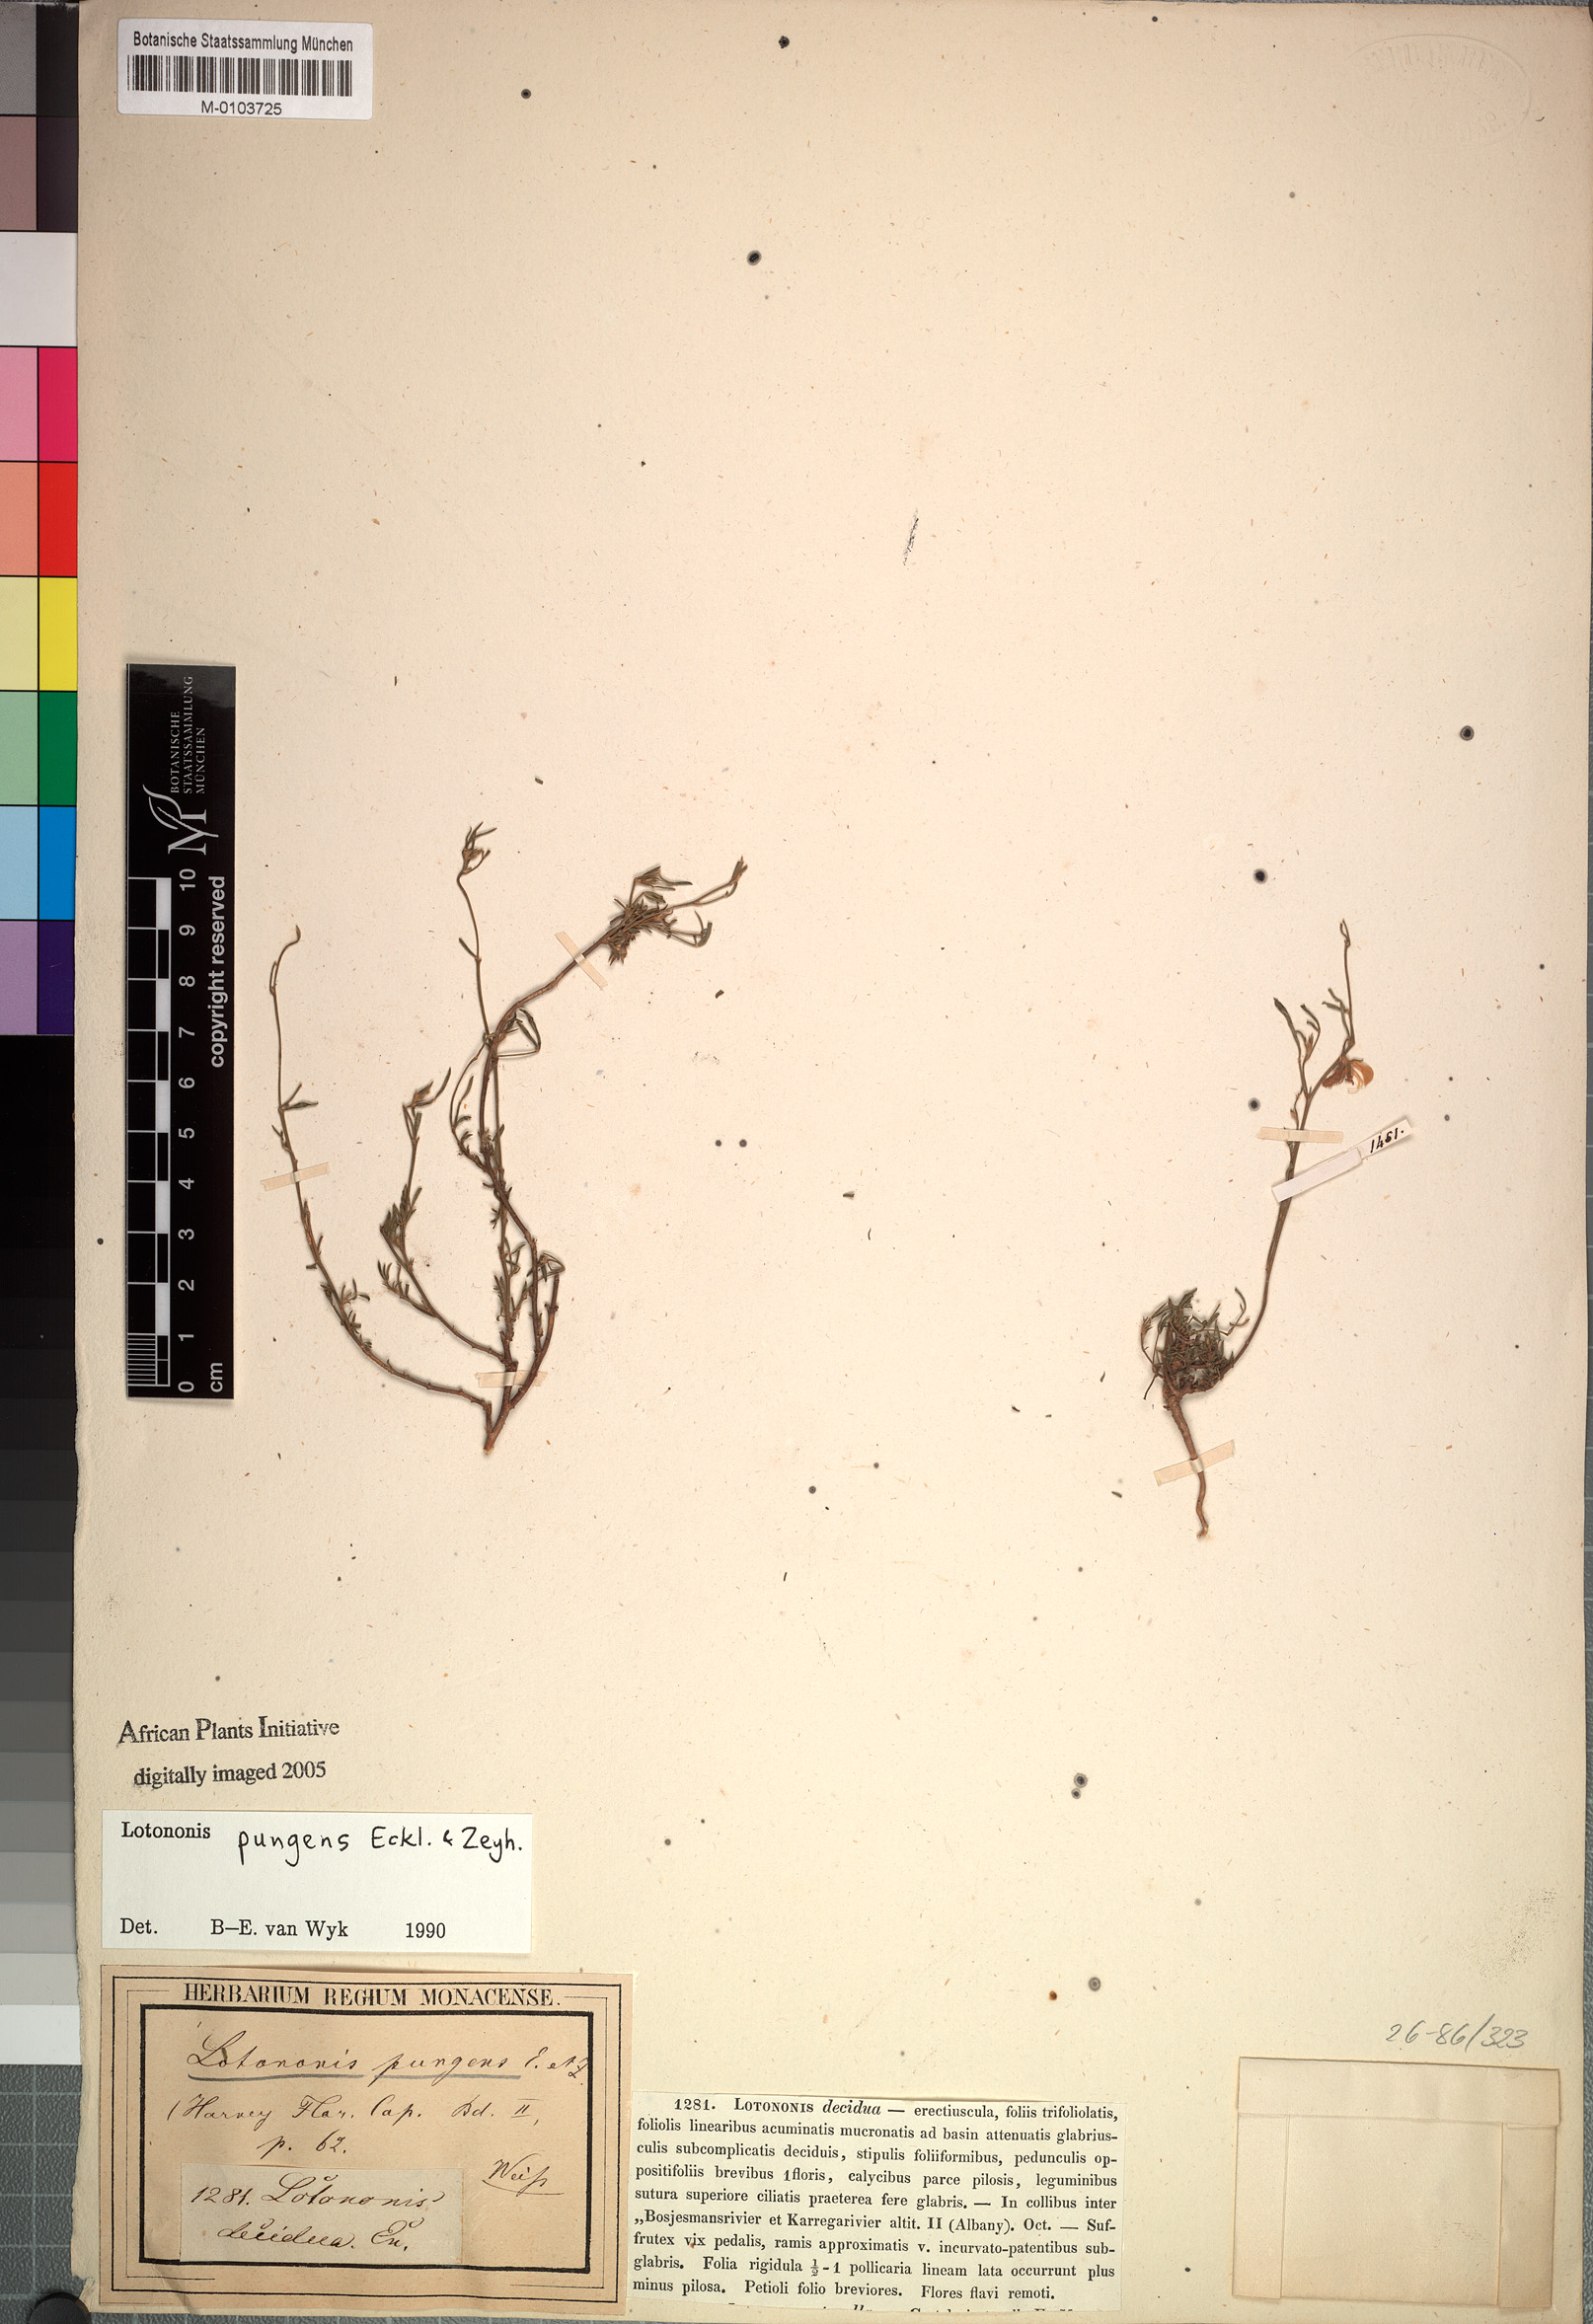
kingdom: Plantae
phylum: Tracheophyta
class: Magnoliopsida
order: Fabales
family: Fabaceae
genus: Lotononis
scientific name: Lotononis pungens
